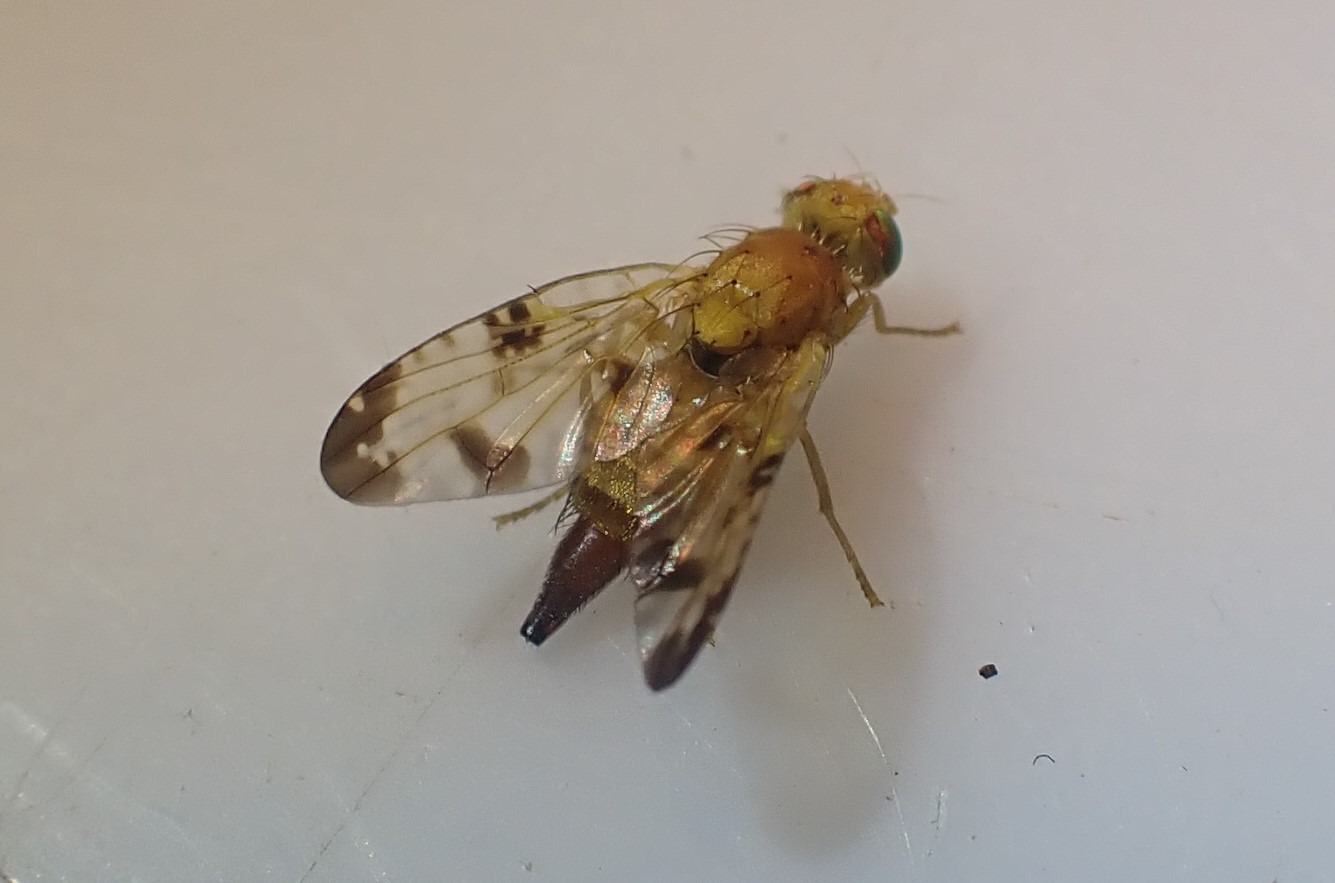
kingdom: Animalia
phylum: Arthropoda
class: Insecta
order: Diptera
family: Tephritidae
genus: Xyphosia
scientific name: Xyphosia miliaria
